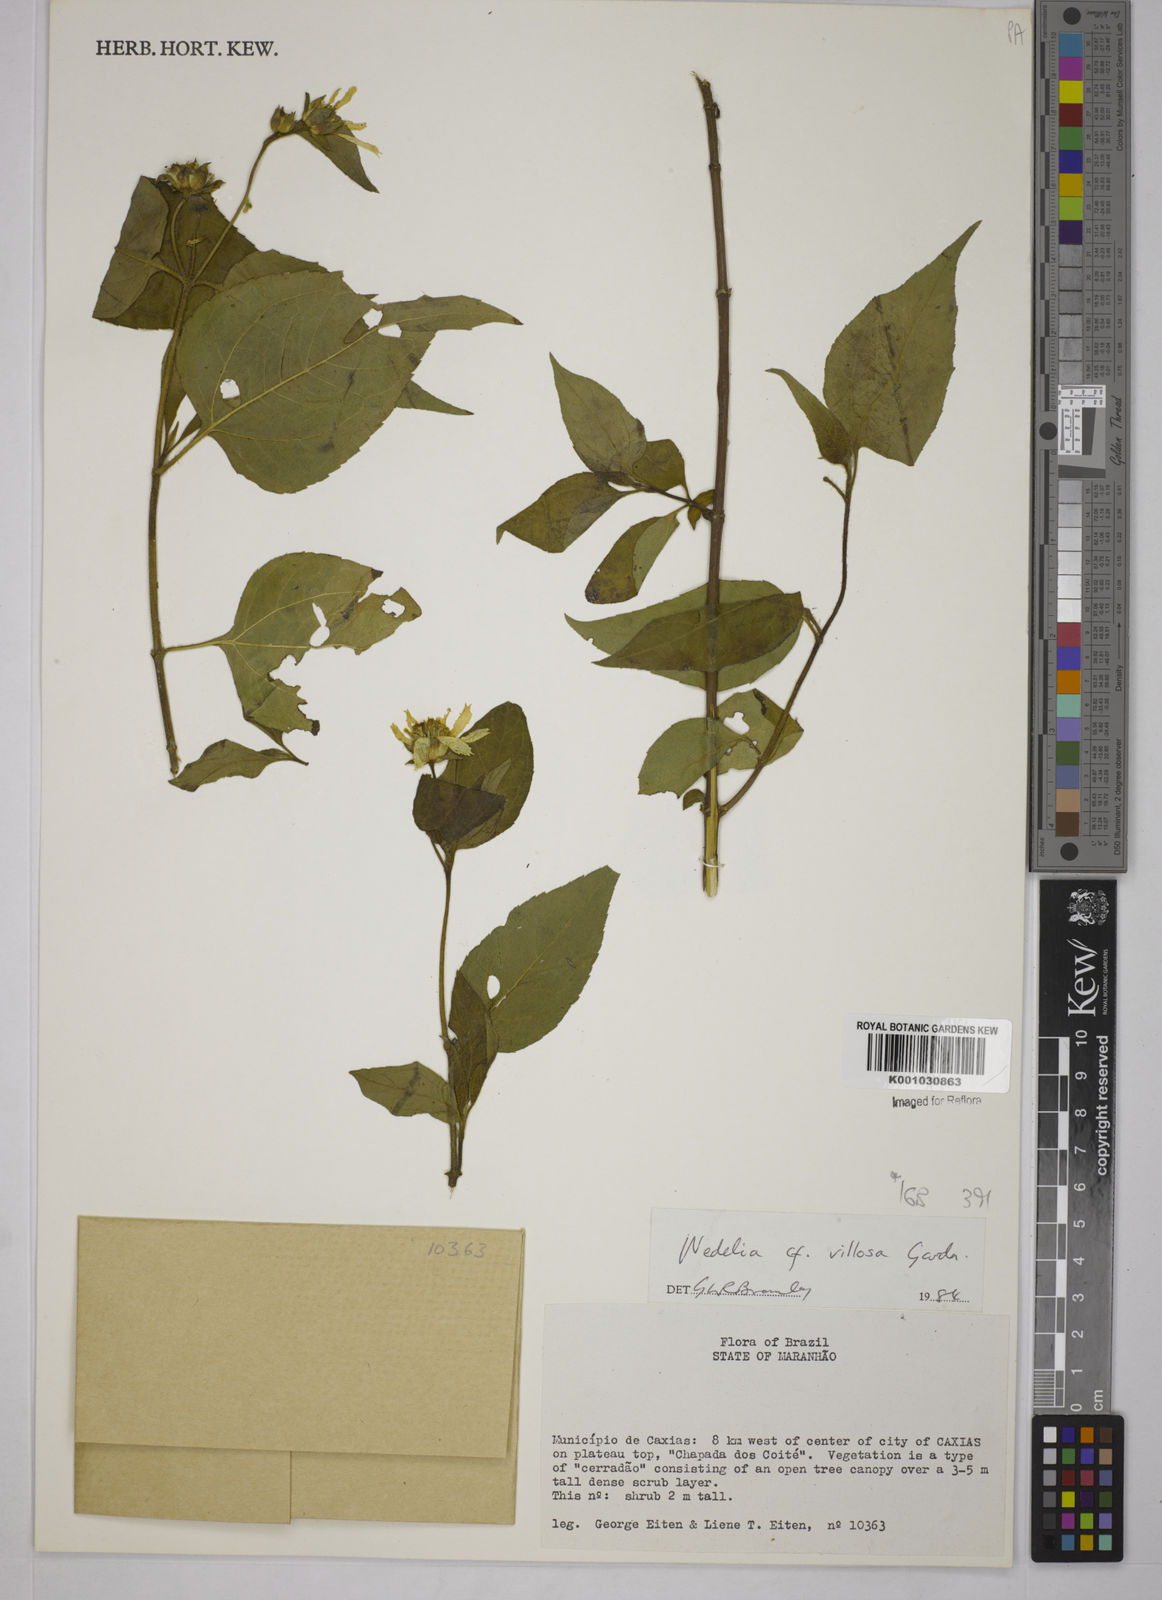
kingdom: Plantae
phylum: Tracheophyta
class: Magnoliopsida
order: Asterales
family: Asteraceae
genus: Wedelia
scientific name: Wedelia villosa
